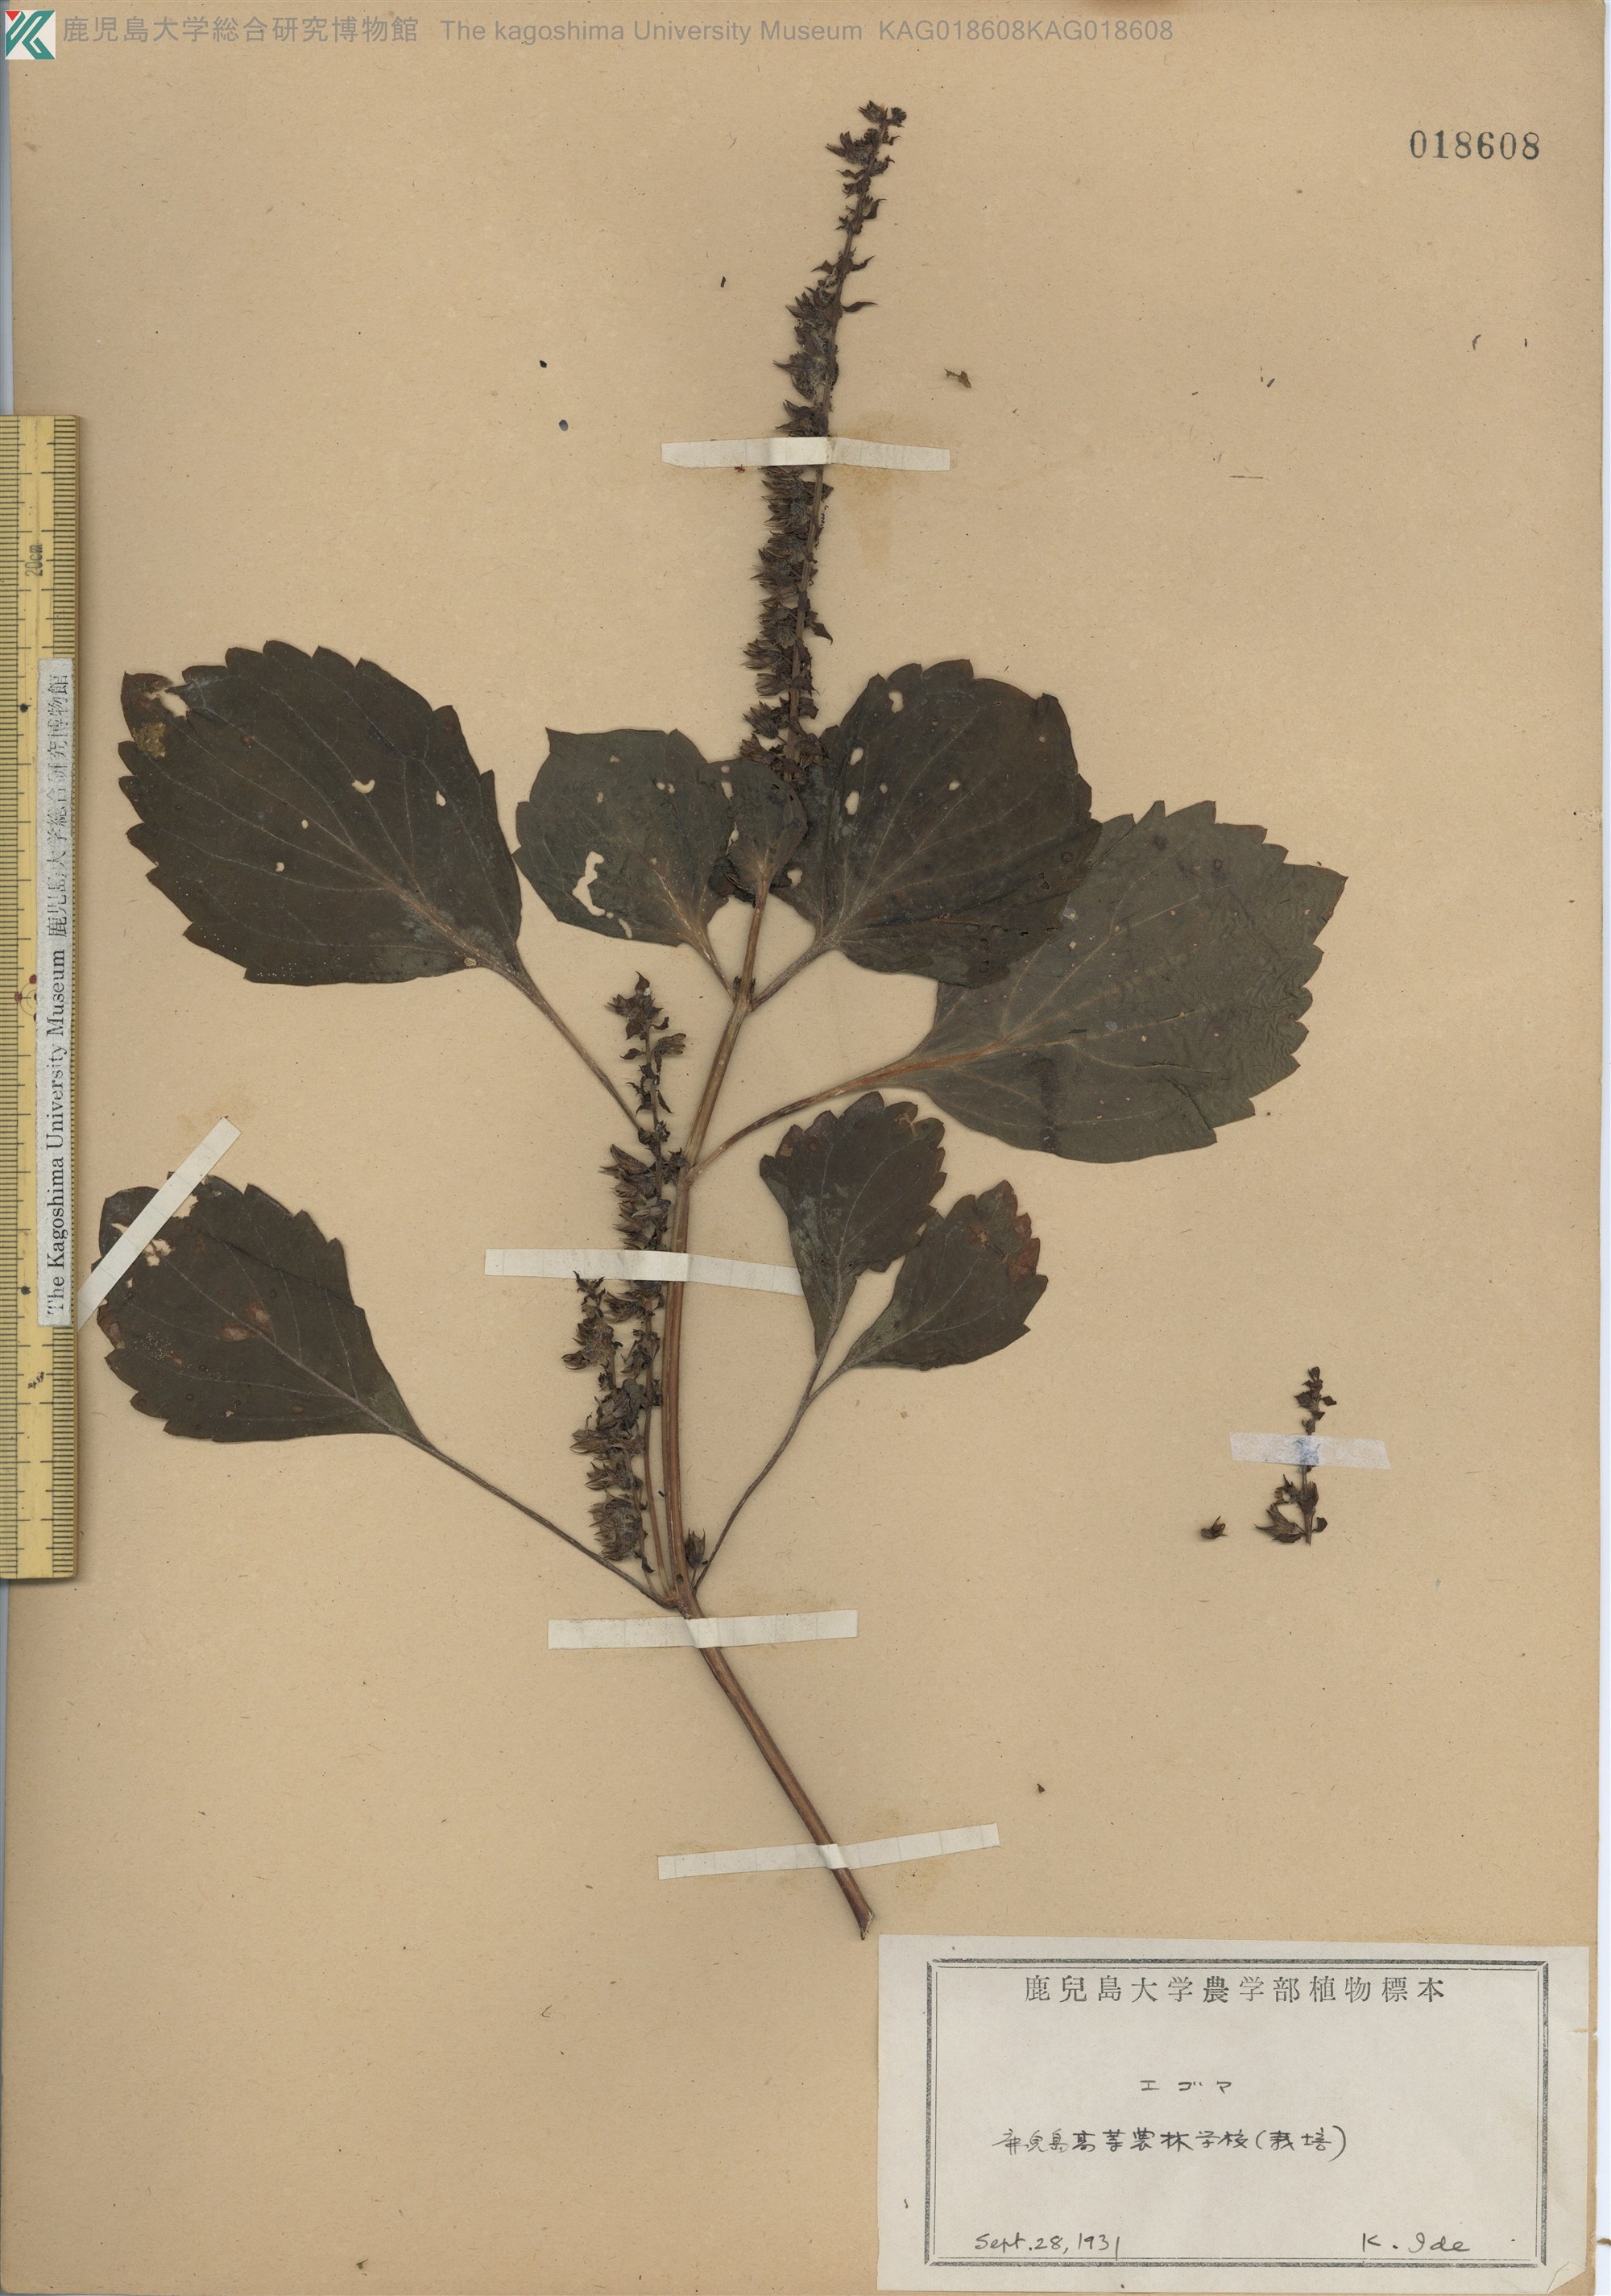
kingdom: Plantae
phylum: Tracheophyta
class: Magnoliopsida
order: Lamiales
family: Lamiaceae
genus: Perilla
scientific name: Perilla frutescens
